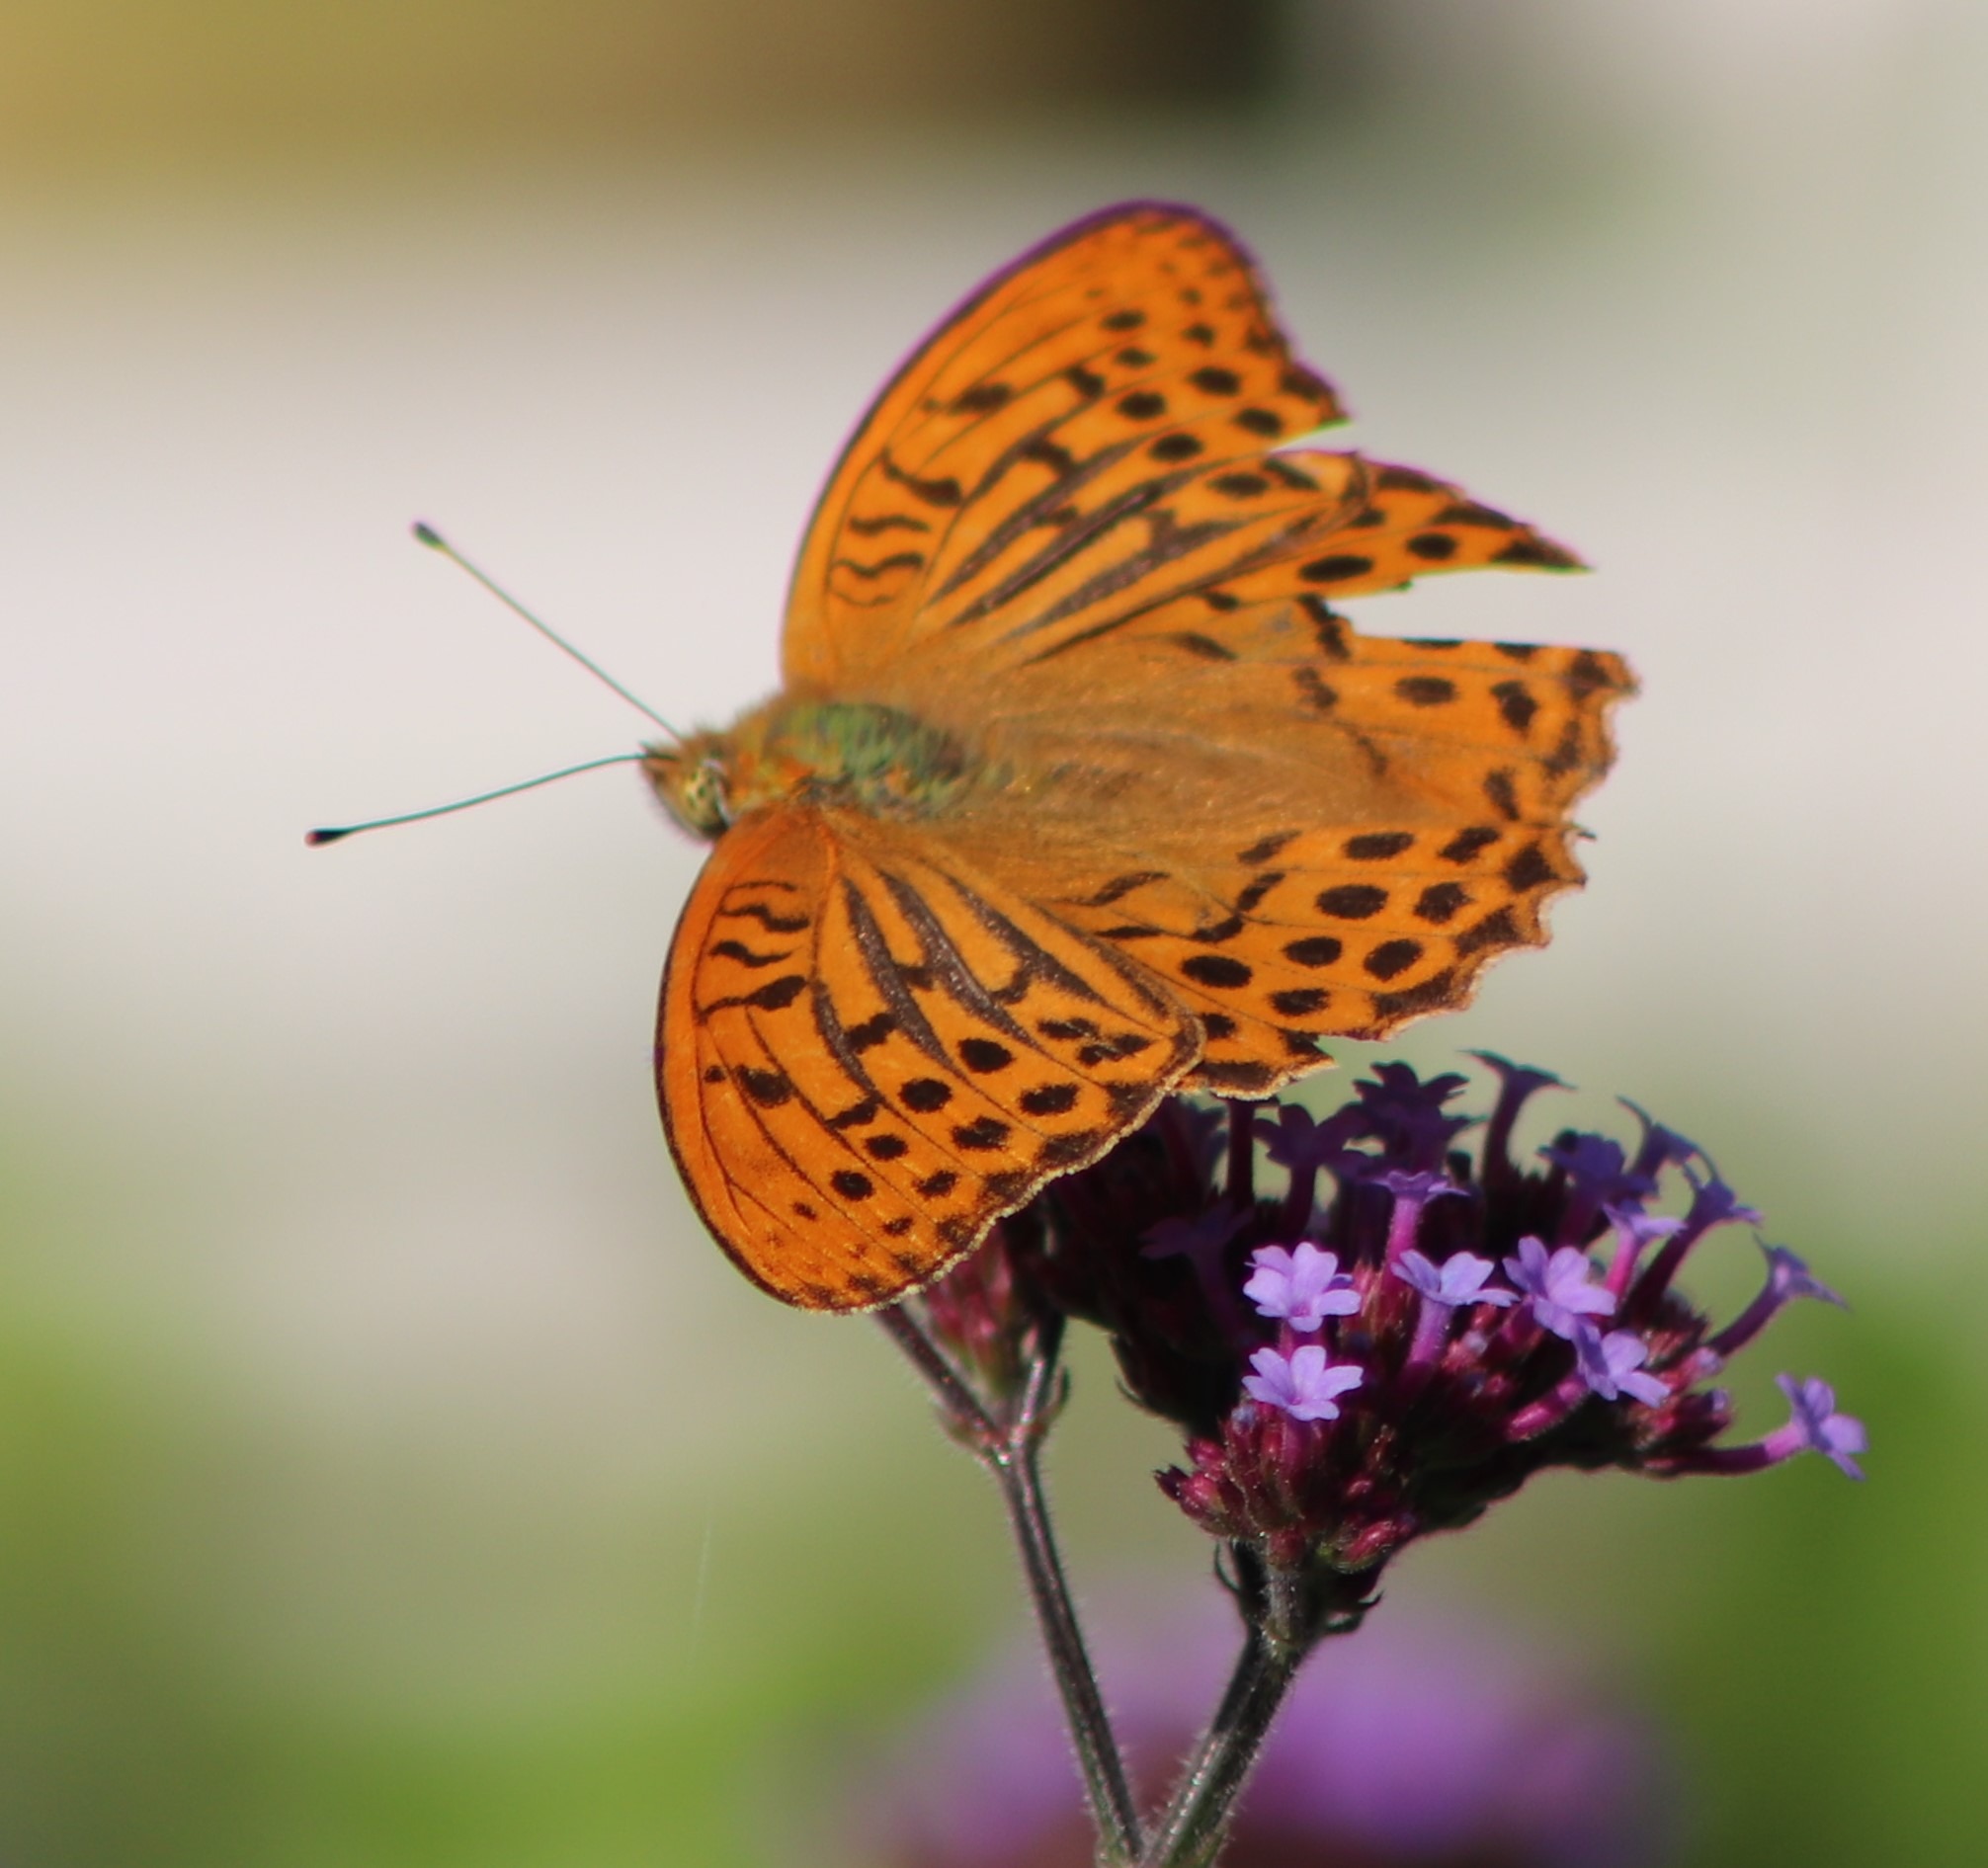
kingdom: Animalia
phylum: Arthropoda
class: Insecta
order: Lepidoptera
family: Nymphalidae
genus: Argynnis
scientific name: Argynnis paphia
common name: Kejserkåbe
